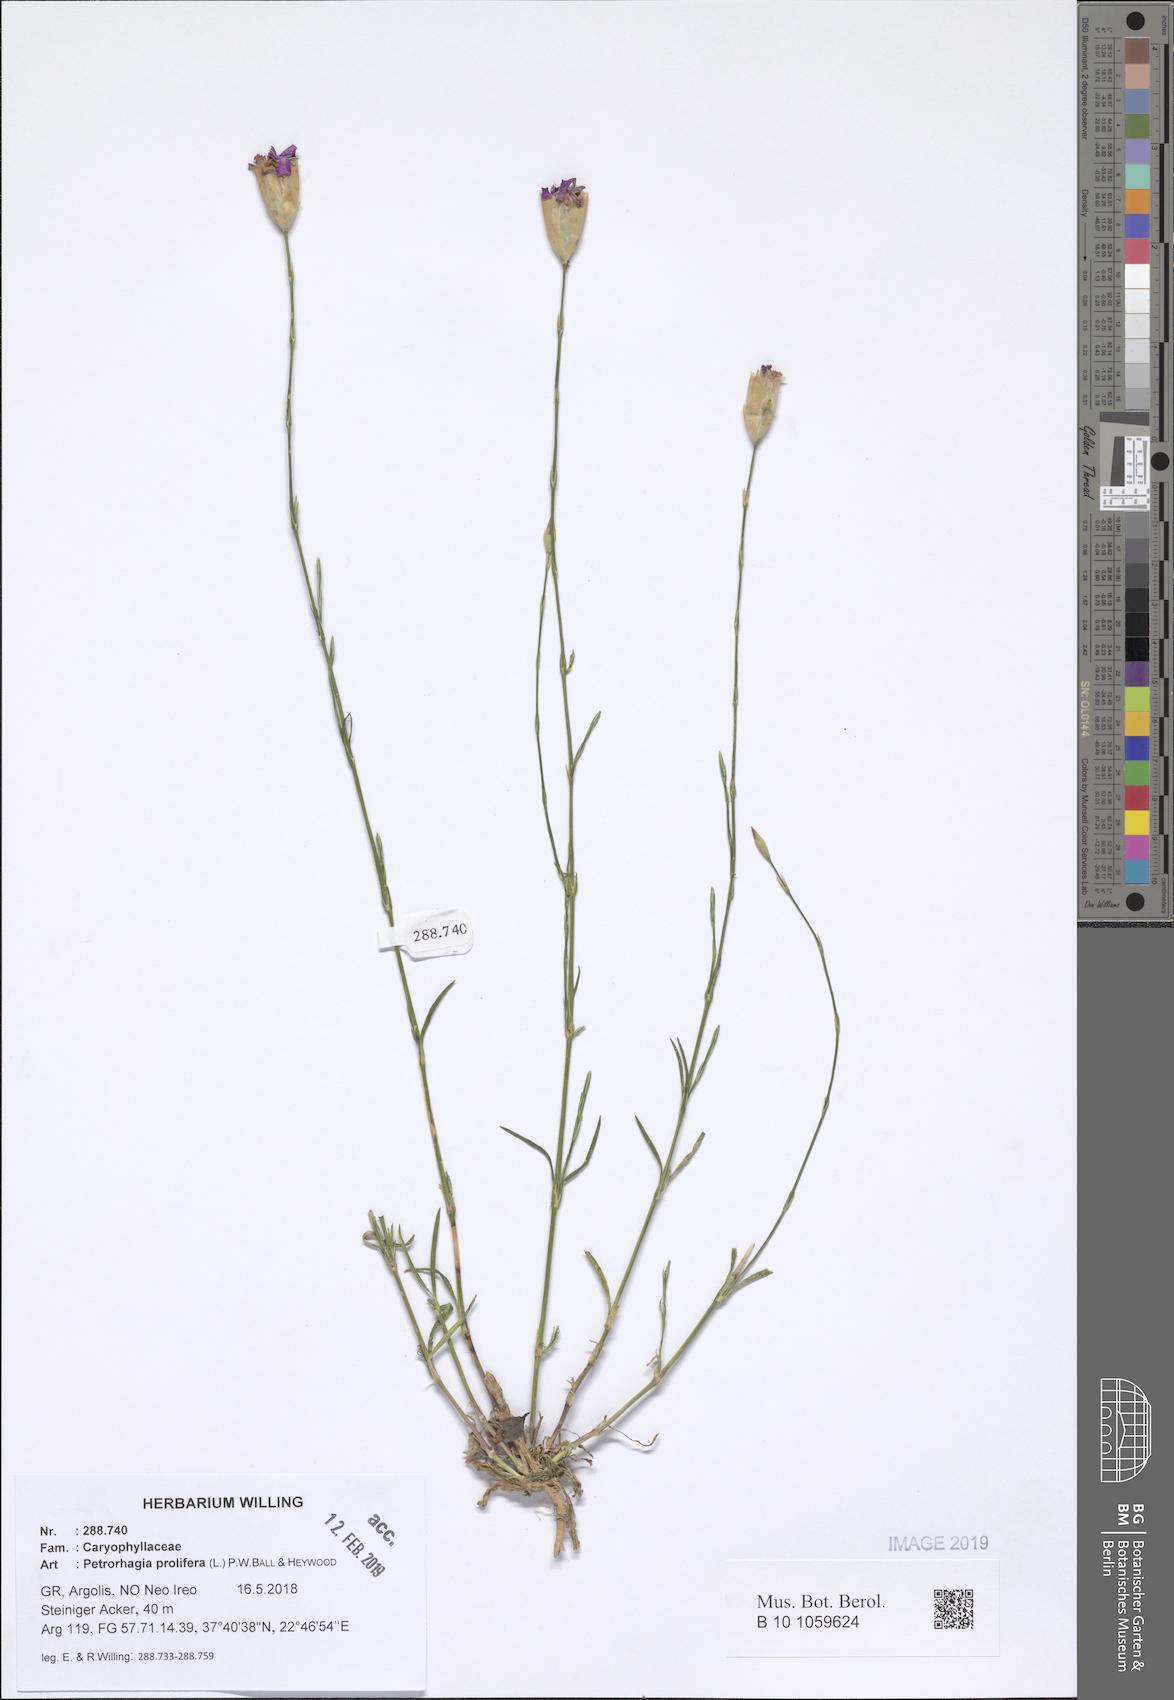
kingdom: Plantae
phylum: Tracheophyta
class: Magnoliopsida
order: Caryophyllales
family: Caryophyllaceae
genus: Petrorhagia
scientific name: Petrorhagia prolifera
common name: Proliferous pink
